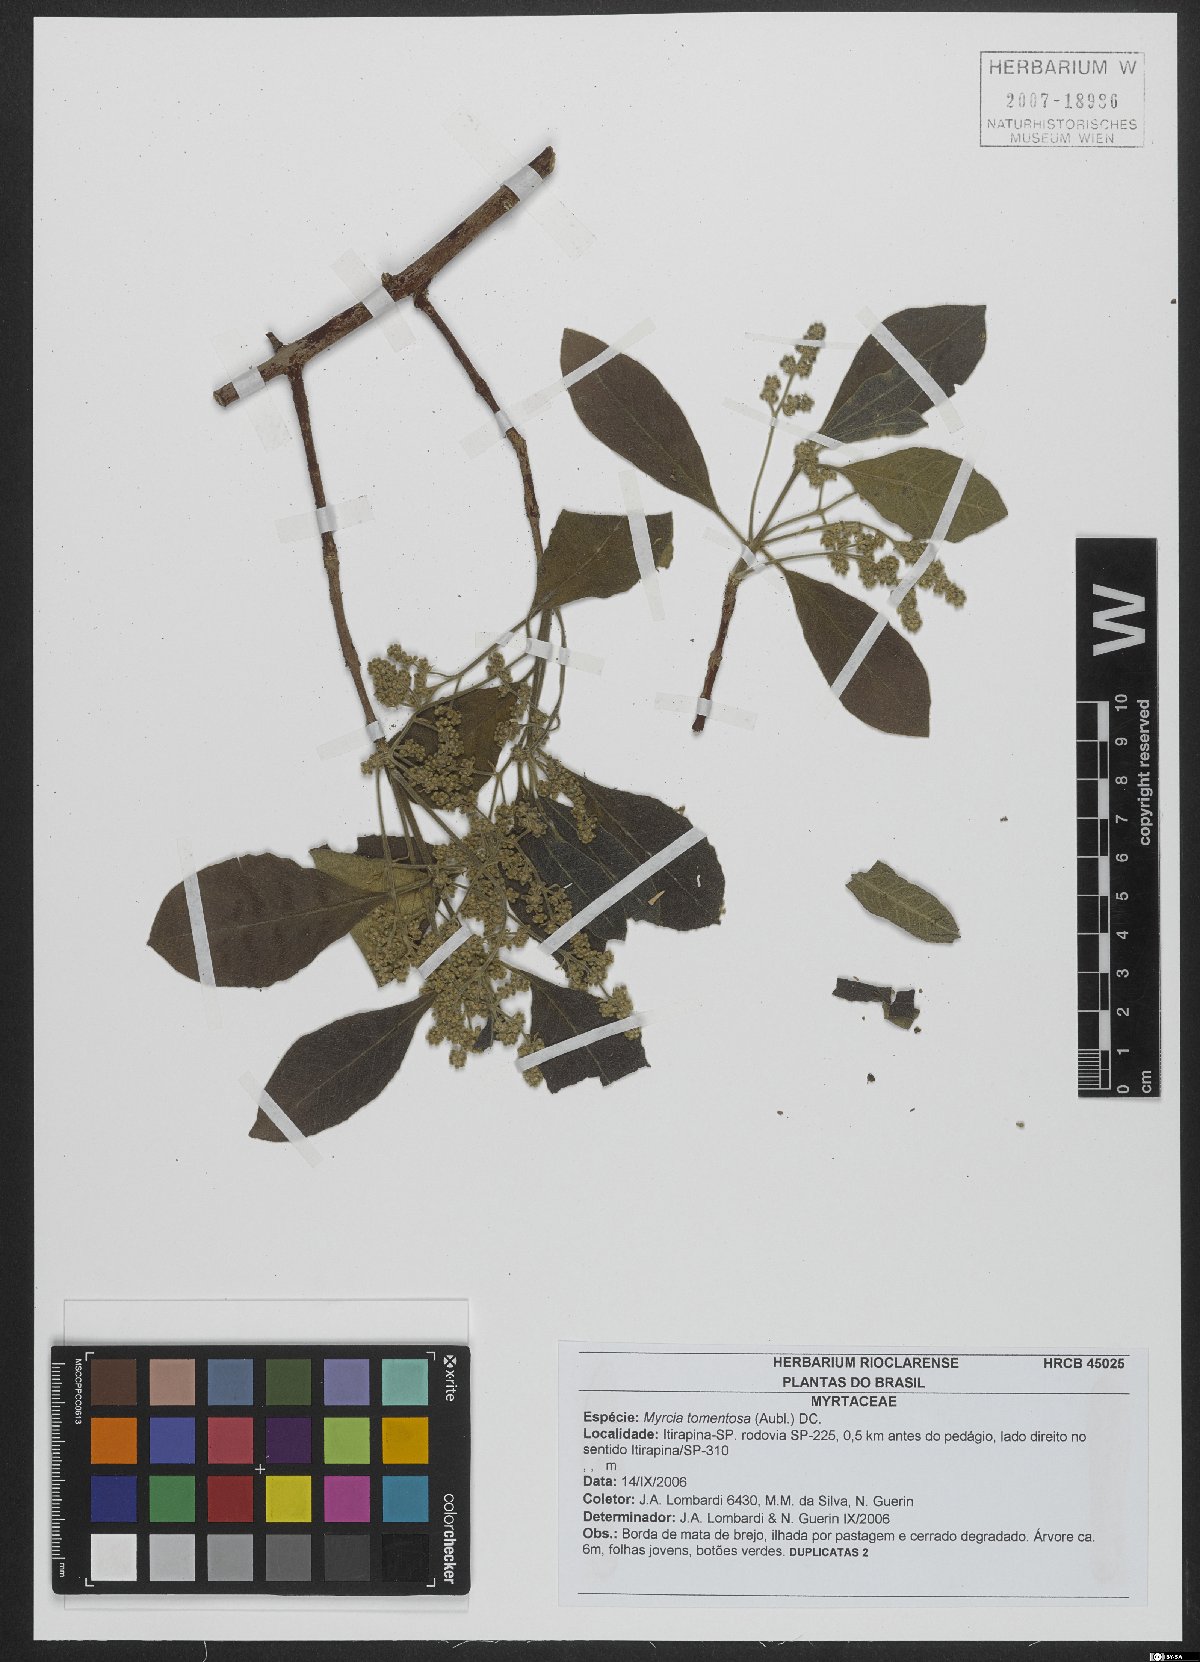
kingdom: Plantae
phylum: Tracheophyta
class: Magnoliopsida
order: Myrtales
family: Myrtaceae
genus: Myrcia
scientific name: Myrcia tomentosa
